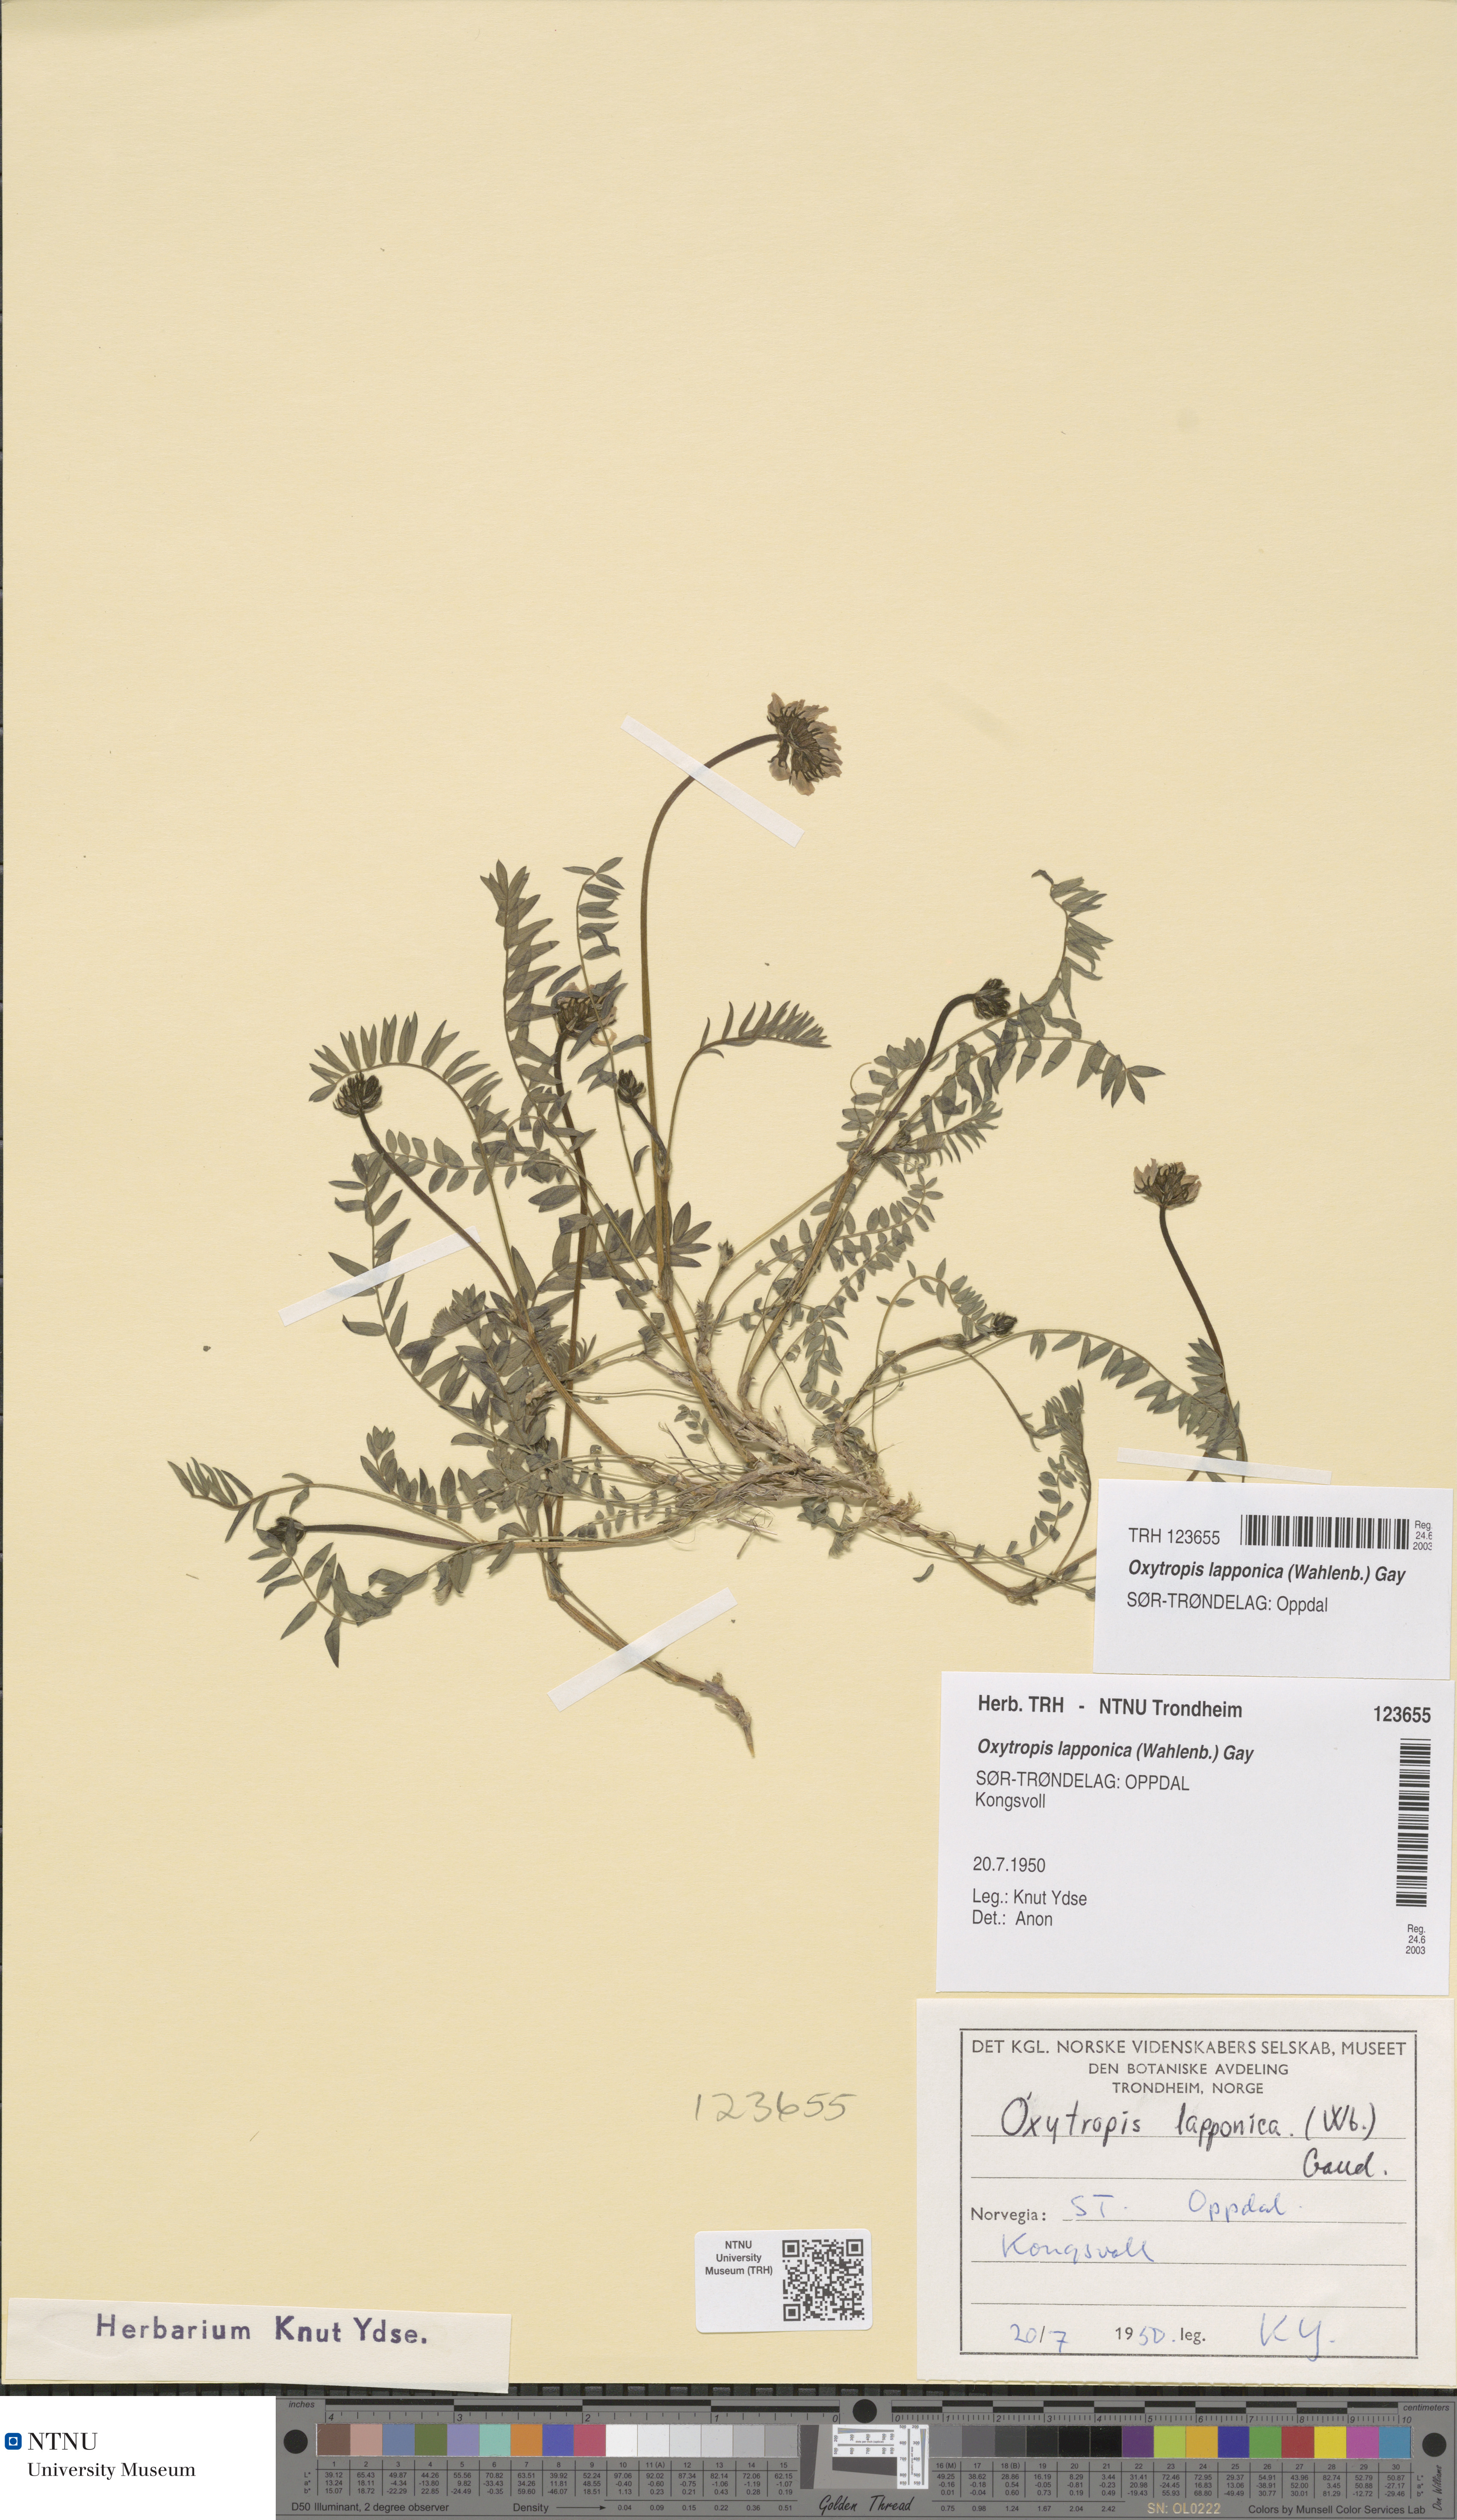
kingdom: Plantae
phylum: Tracheophyta
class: Magnoliopsida
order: Fabales
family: Fabaceae
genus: Oxytropis
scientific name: Oxytropis lapponica
